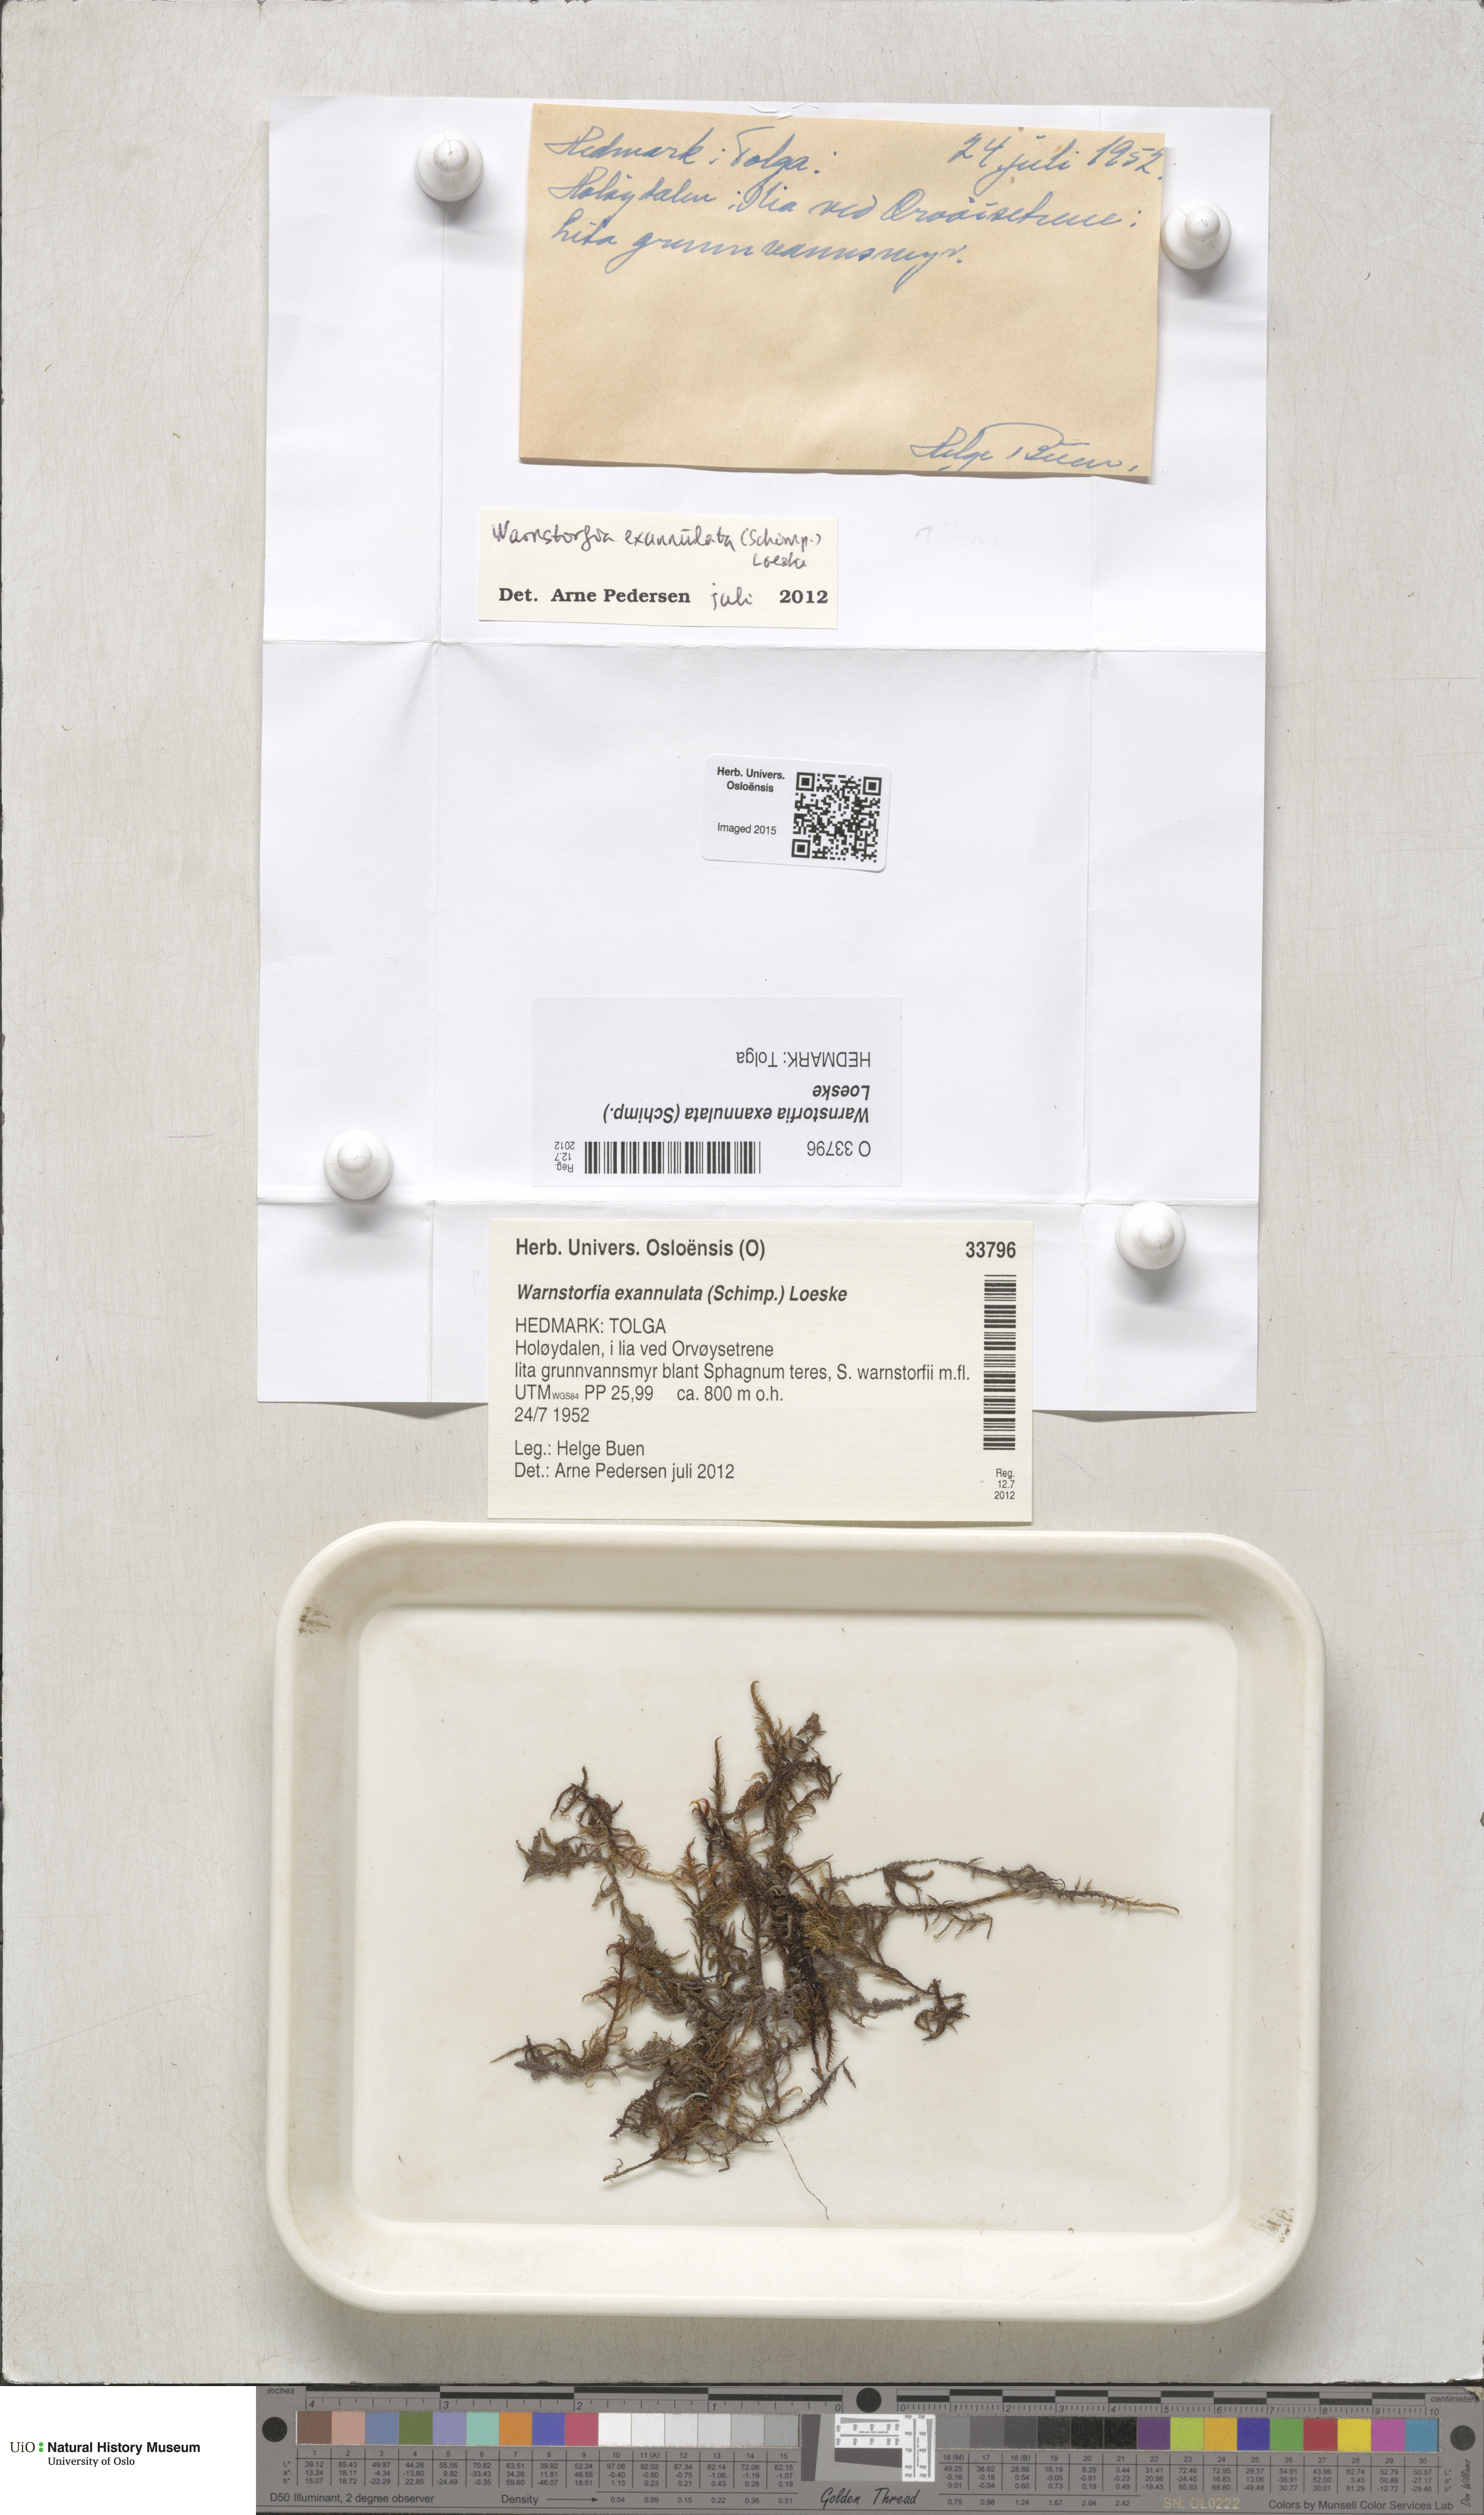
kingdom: Plantae
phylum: Bryophyta
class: Bryopsida
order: Hypnales
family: Calliergonaceae
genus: Sarmentypnum
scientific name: Sarmentypnum exannulatum
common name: Ringless spoon moss
